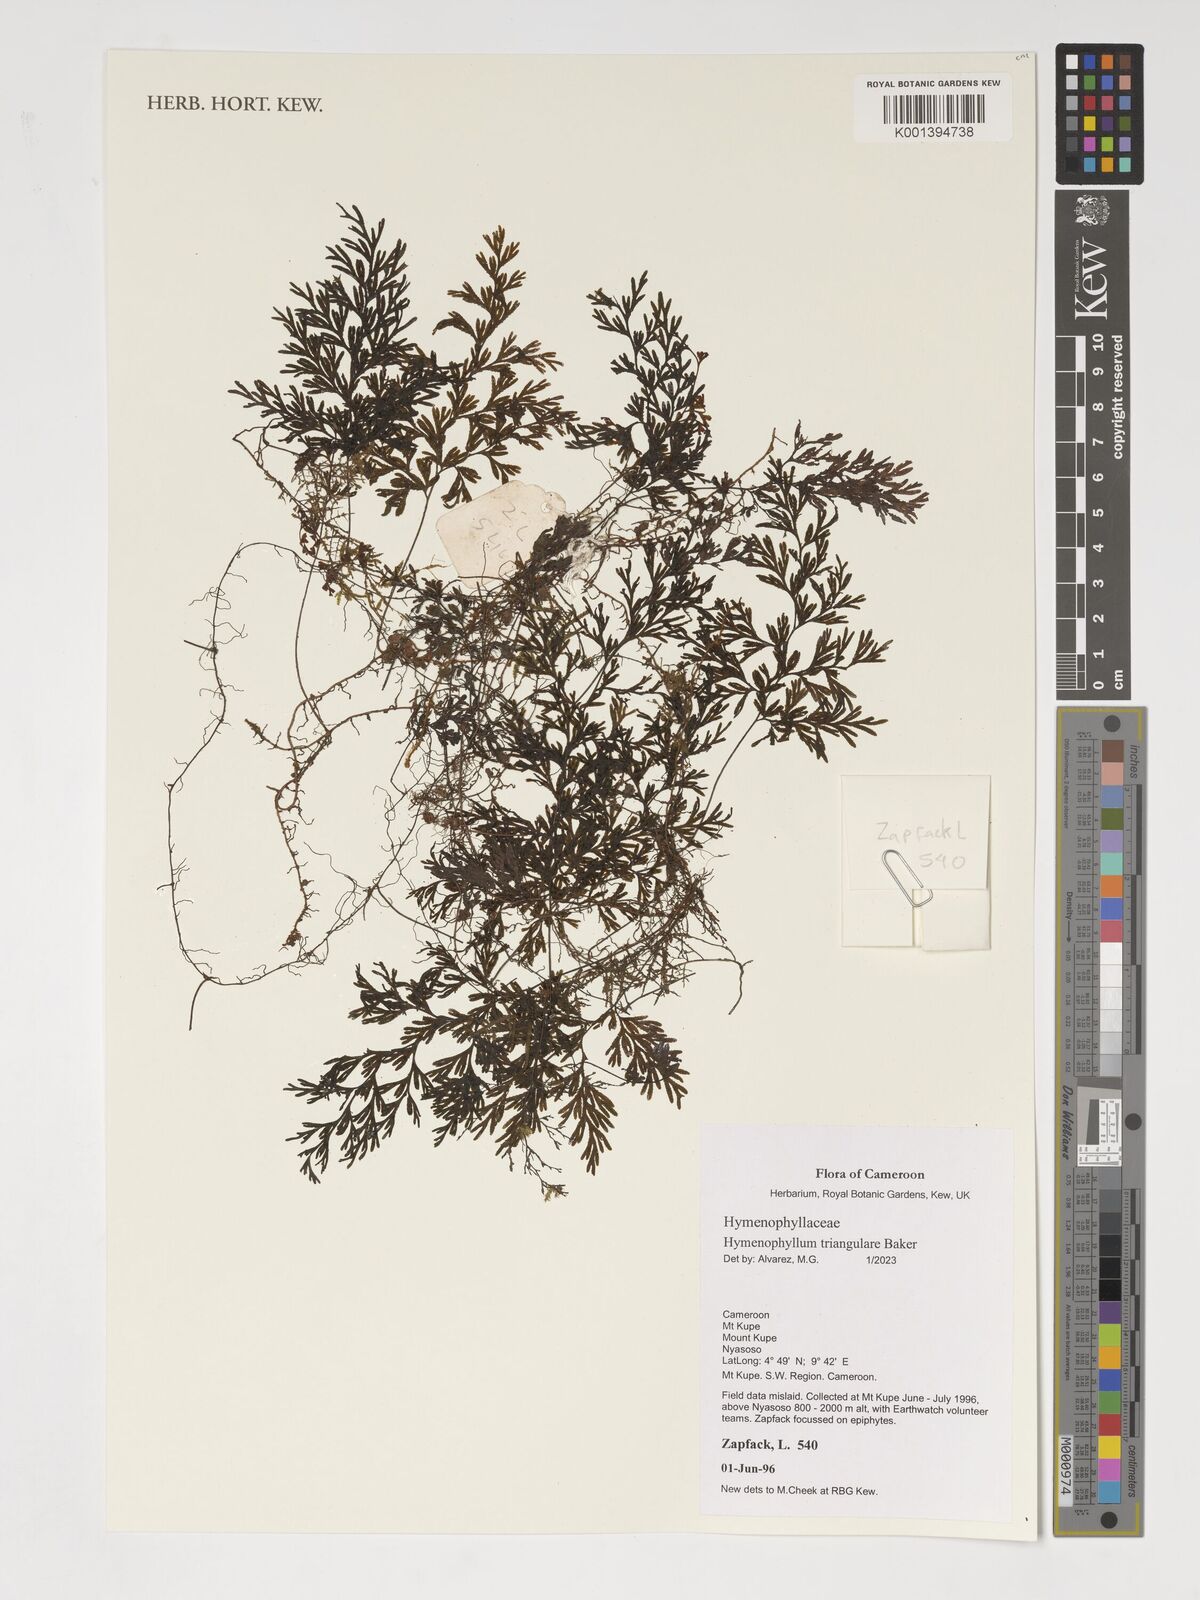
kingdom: Plantae
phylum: Tracheophyta
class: Polypodiopsida
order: Hymenophyllales
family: Hymenophyllaceae
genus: Hymenophyllum
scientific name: Hymenophyllum triangulare
